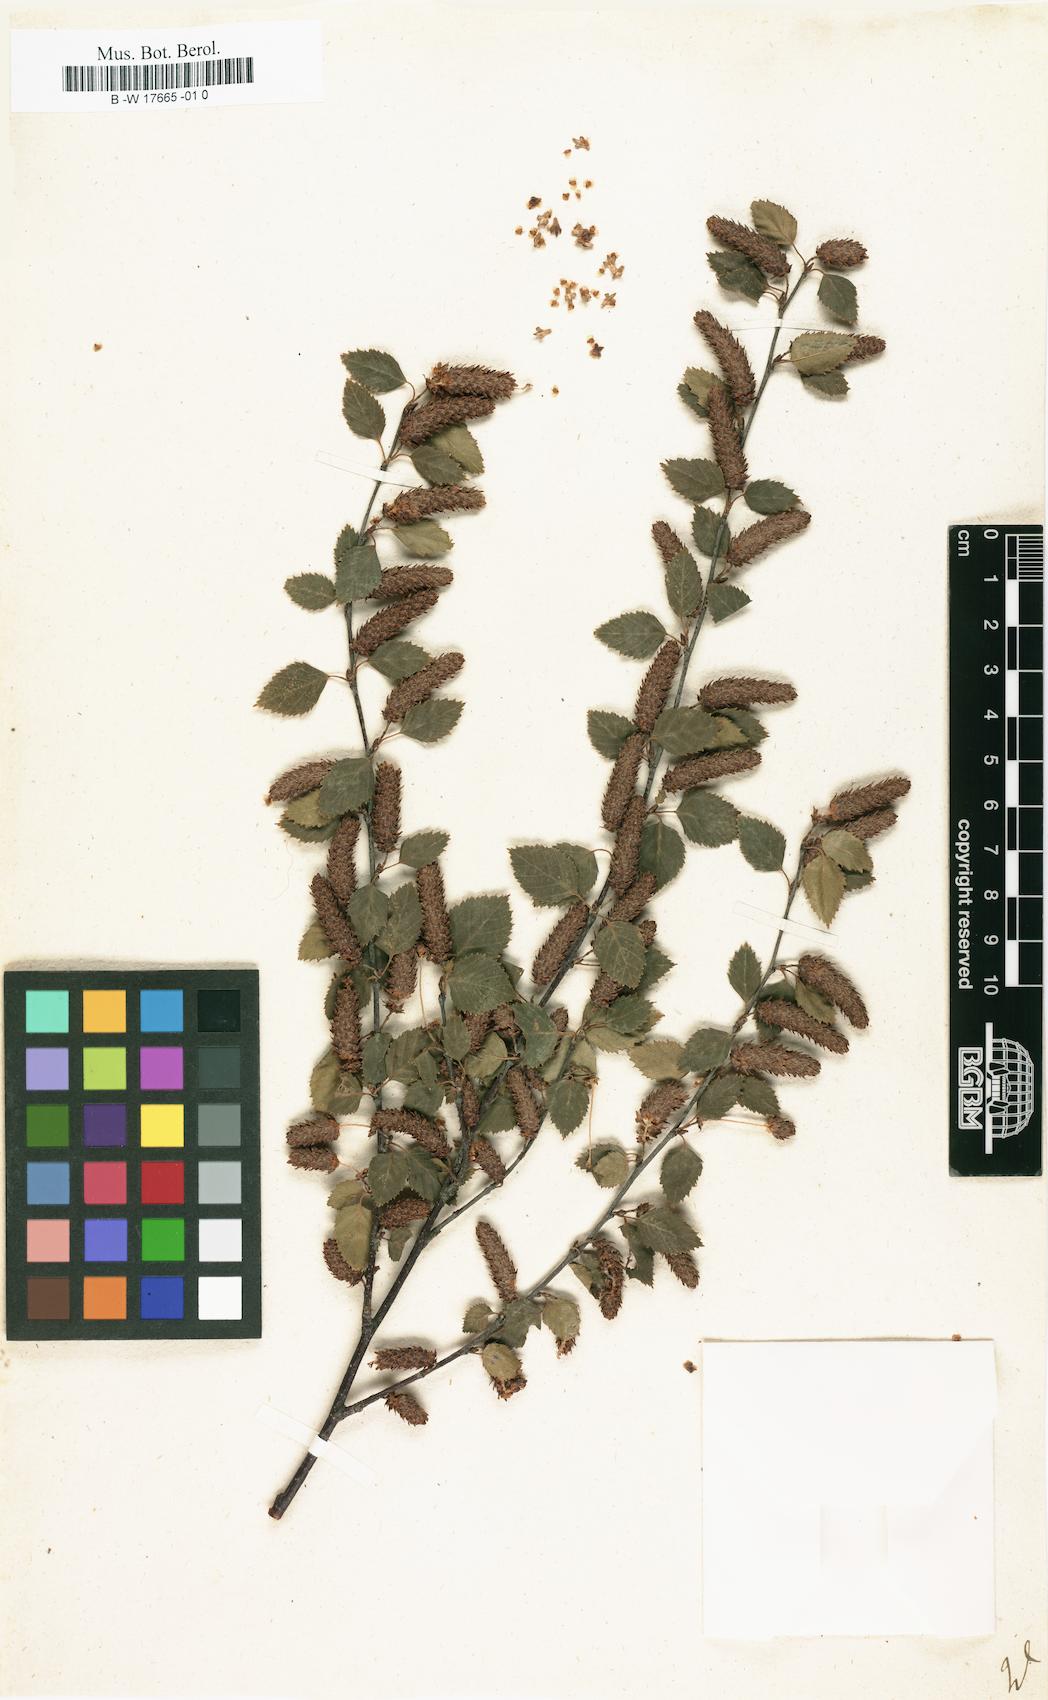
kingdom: Plantae
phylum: Tracheophyta
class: Magnoliopsida
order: Fagales
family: Betulaceae
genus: Betula
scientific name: Betula
